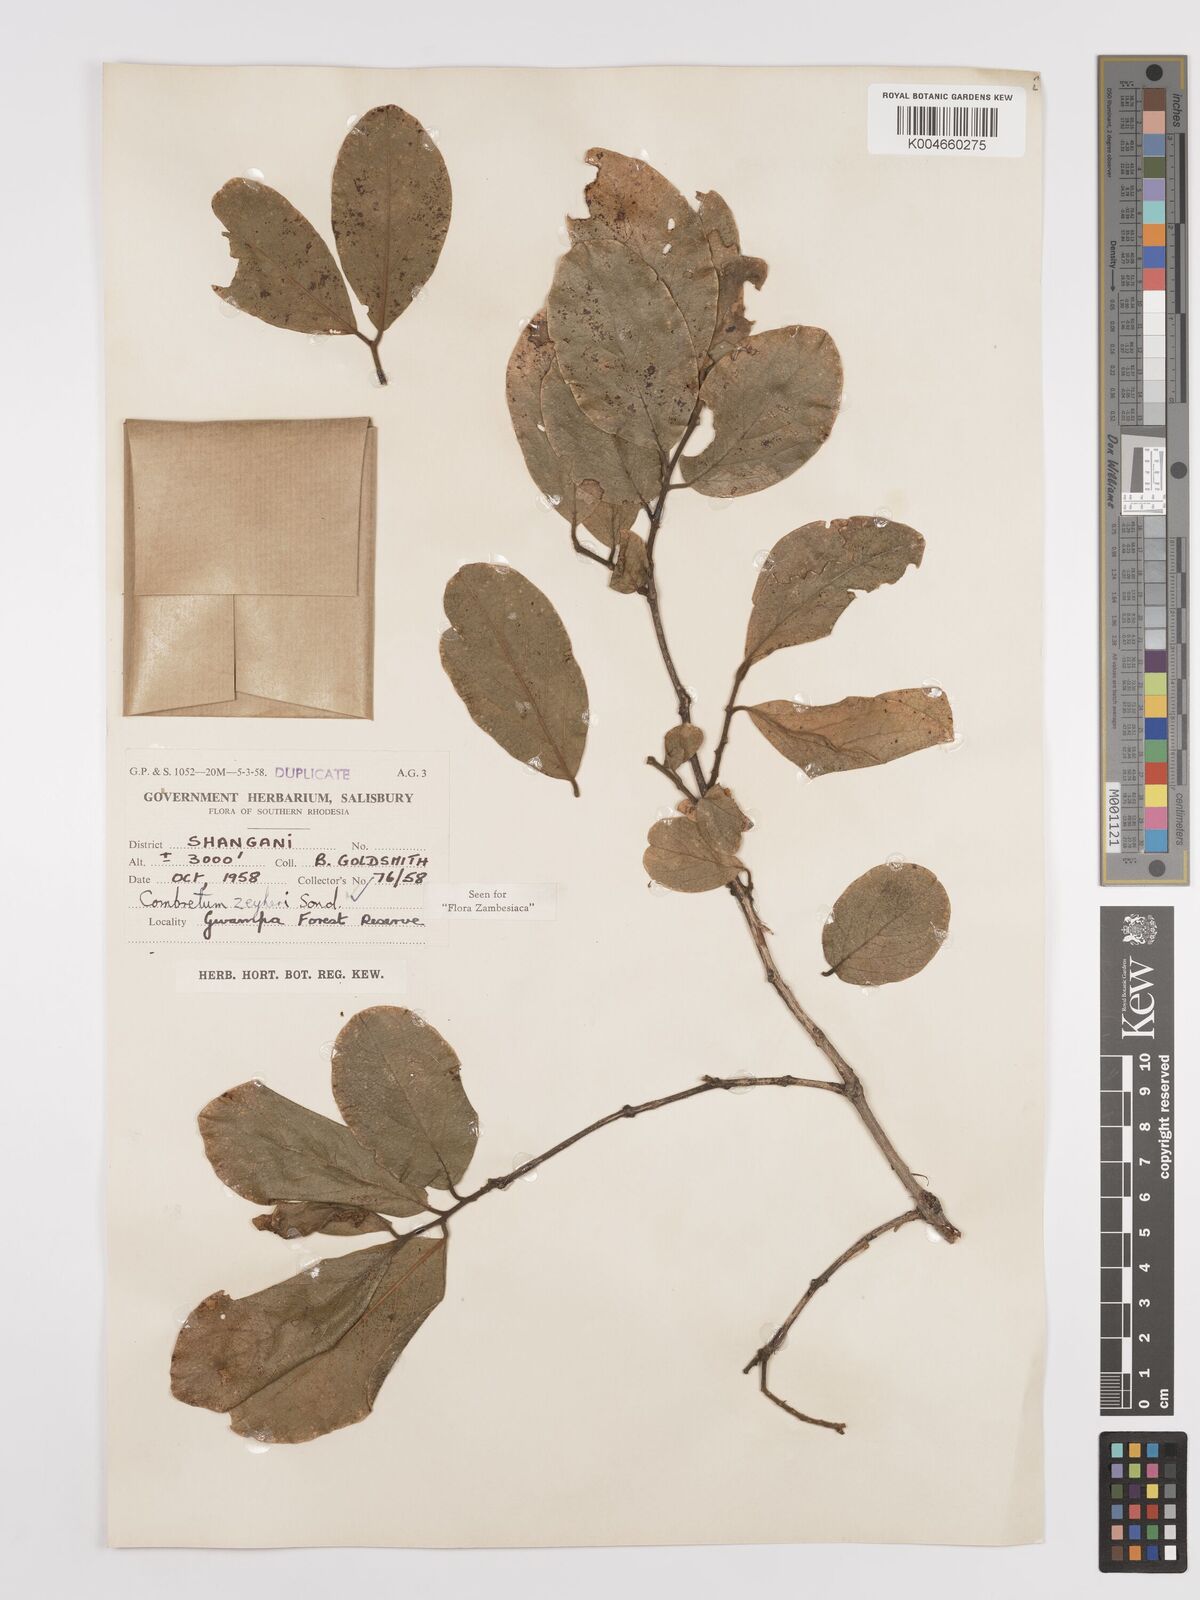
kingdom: Plantae
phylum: Tracheophyta
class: Magnoliopsida
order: Myrtales
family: Combretaceae
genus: Combretum
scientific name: Combretum zeyheri
